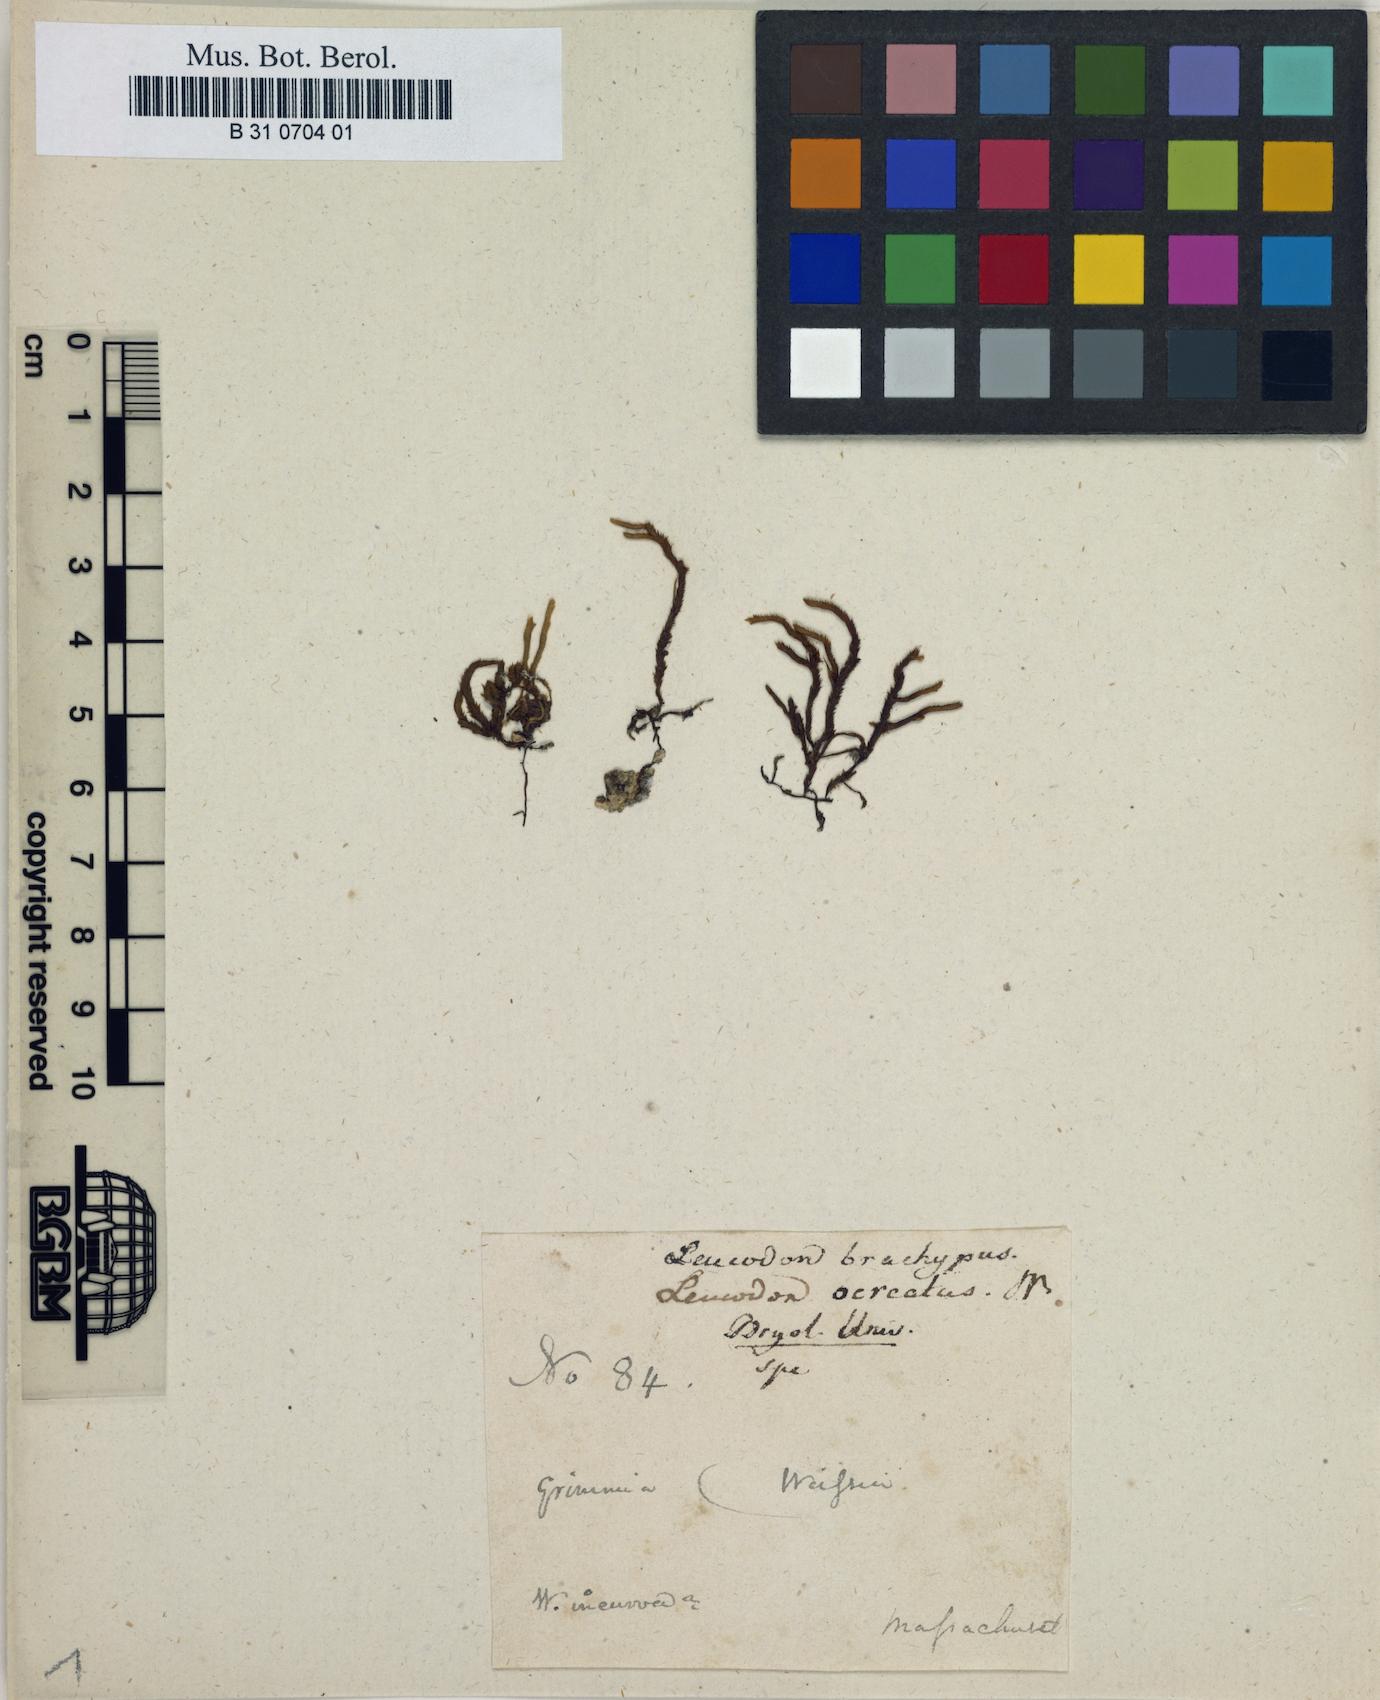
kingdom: Plantae
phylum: Bryophyta
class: Bryopsida
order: Hypnales
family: Leucodontaceae
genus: Leucodon
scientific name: Leucodon brachypus
